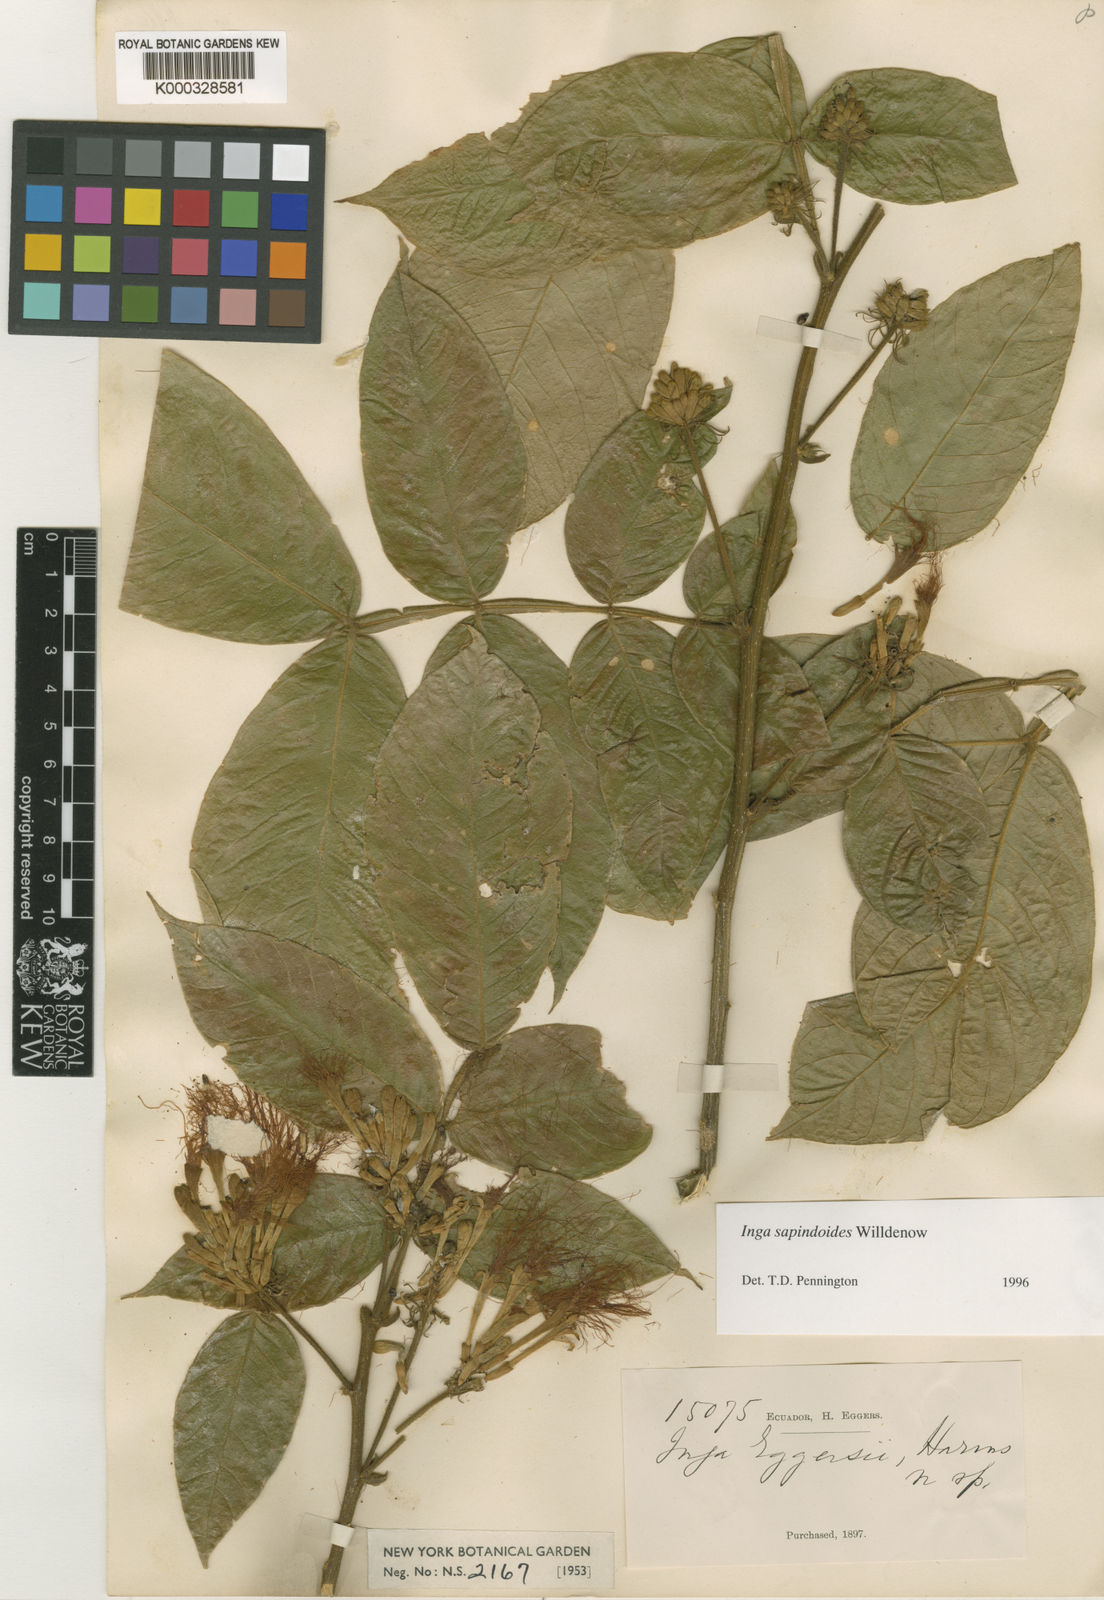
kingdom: Plantae
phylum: Tracheophyta
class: Magnoliopsida
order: Fabales
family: Fabaceae
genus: Inga
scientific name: Inga sapindoides
